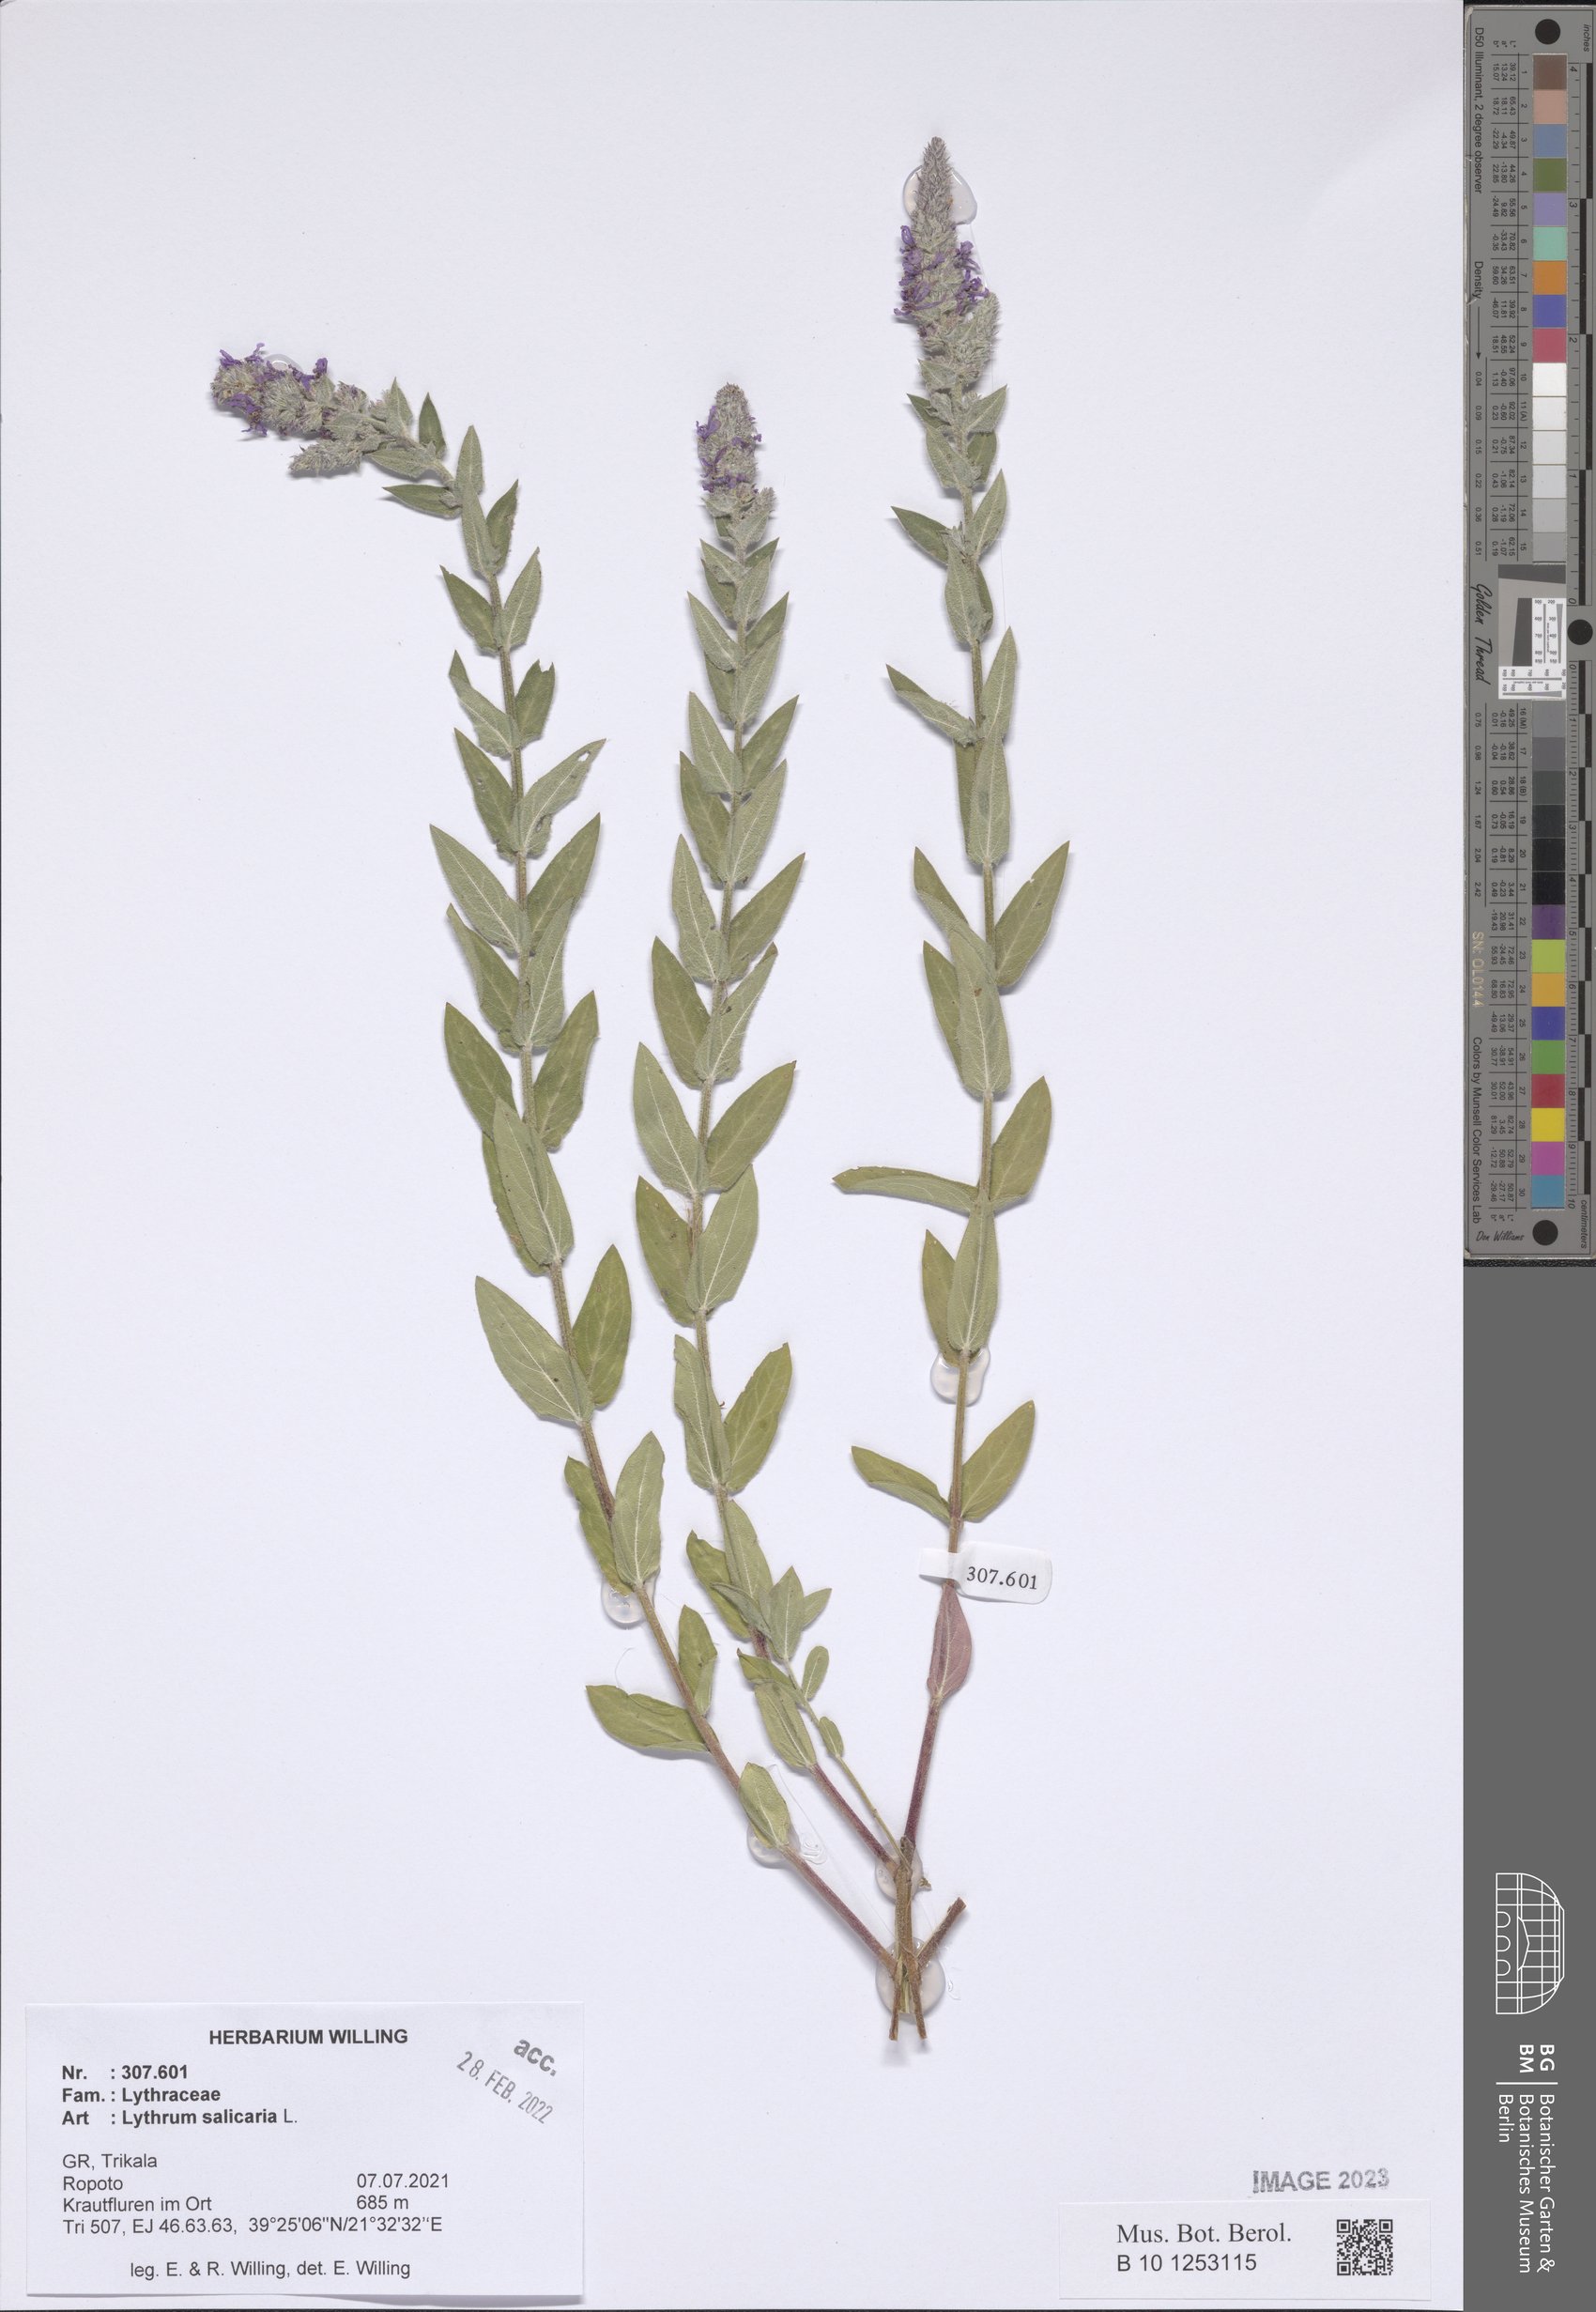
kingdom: Plantae
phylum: Tracheophyta
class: Magnoliopsida
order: Myrtales
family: Lythraceae
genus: Lythrum
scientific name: Lythrum salicaria
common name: Purple loosestrife
